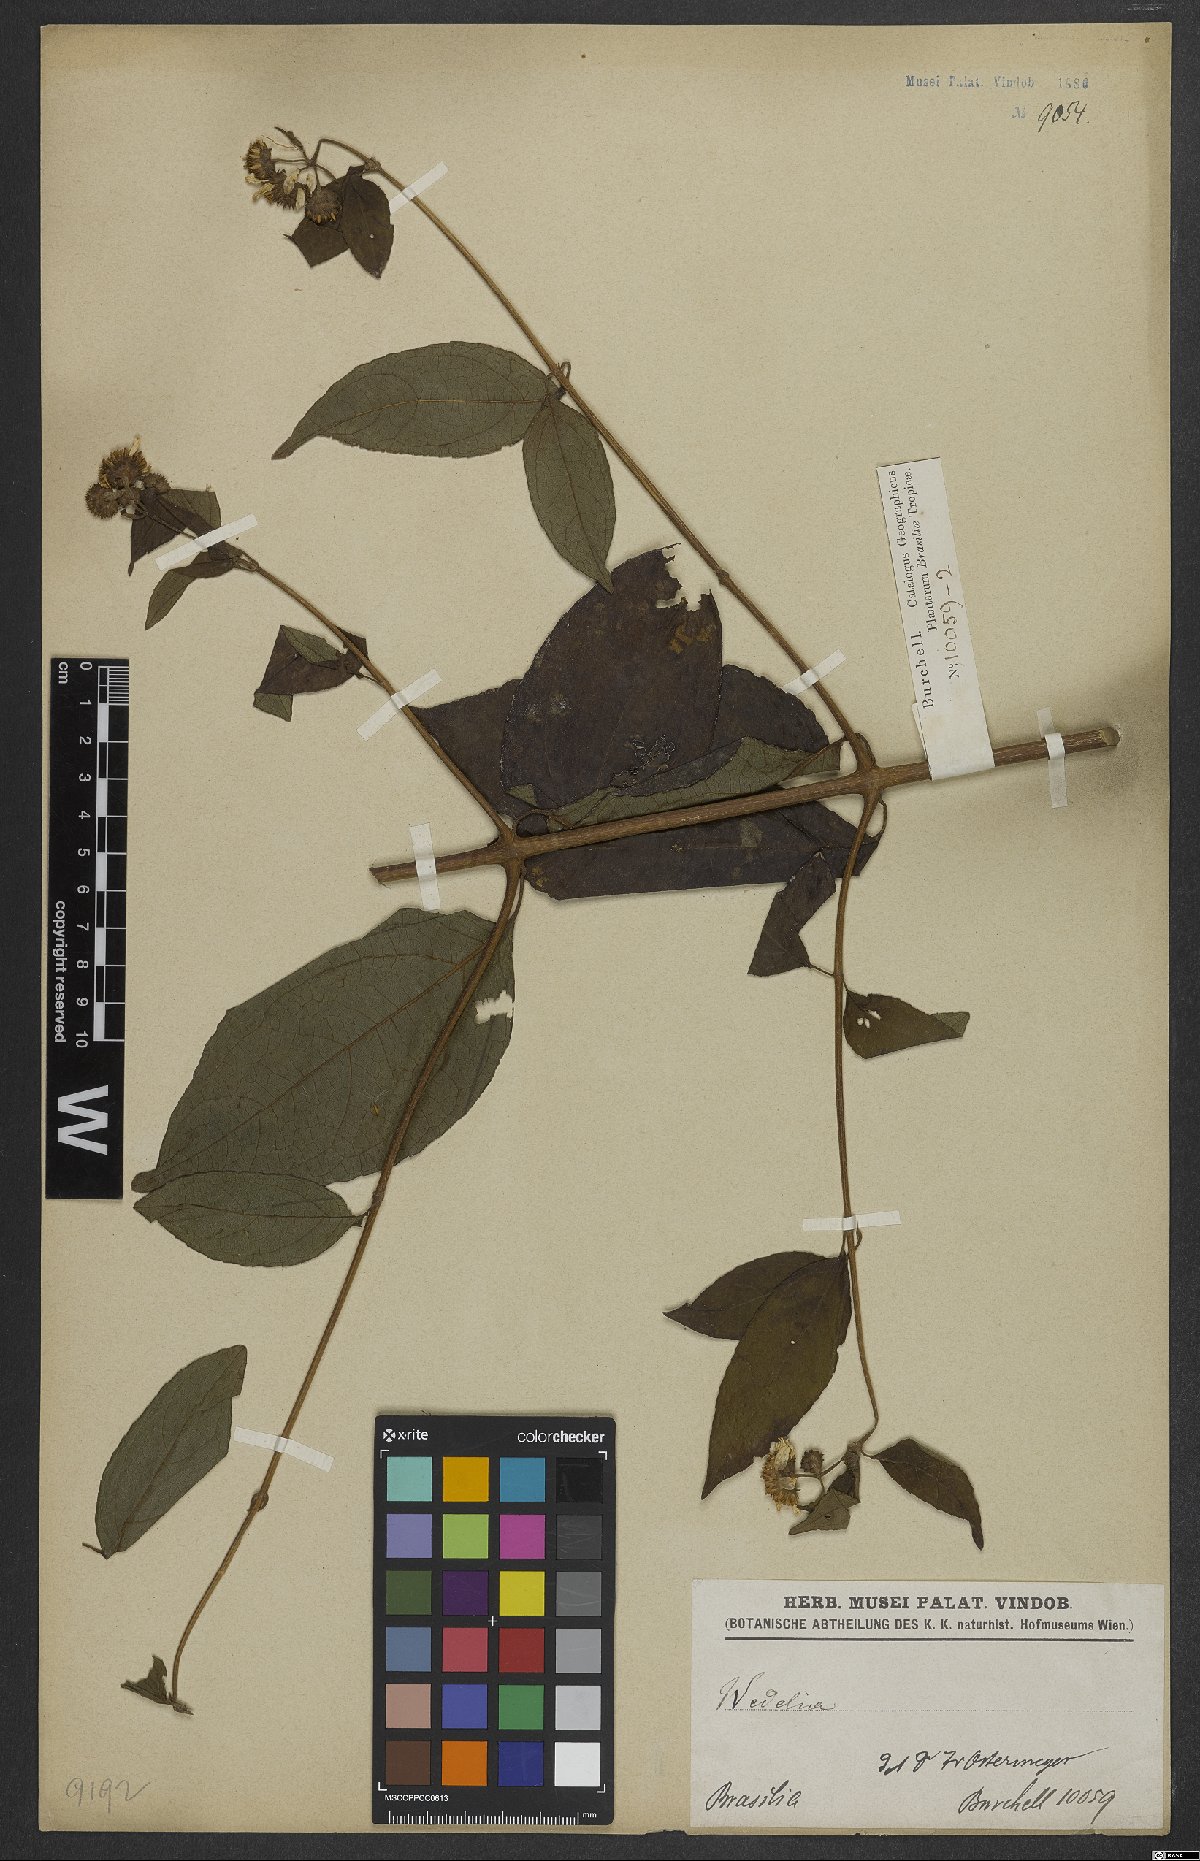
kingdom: Plantae
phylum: Tracheophyta
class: Magnoliopsida
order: Asterales
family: Asteraceae
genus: Wedelia
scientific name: Wedelia
